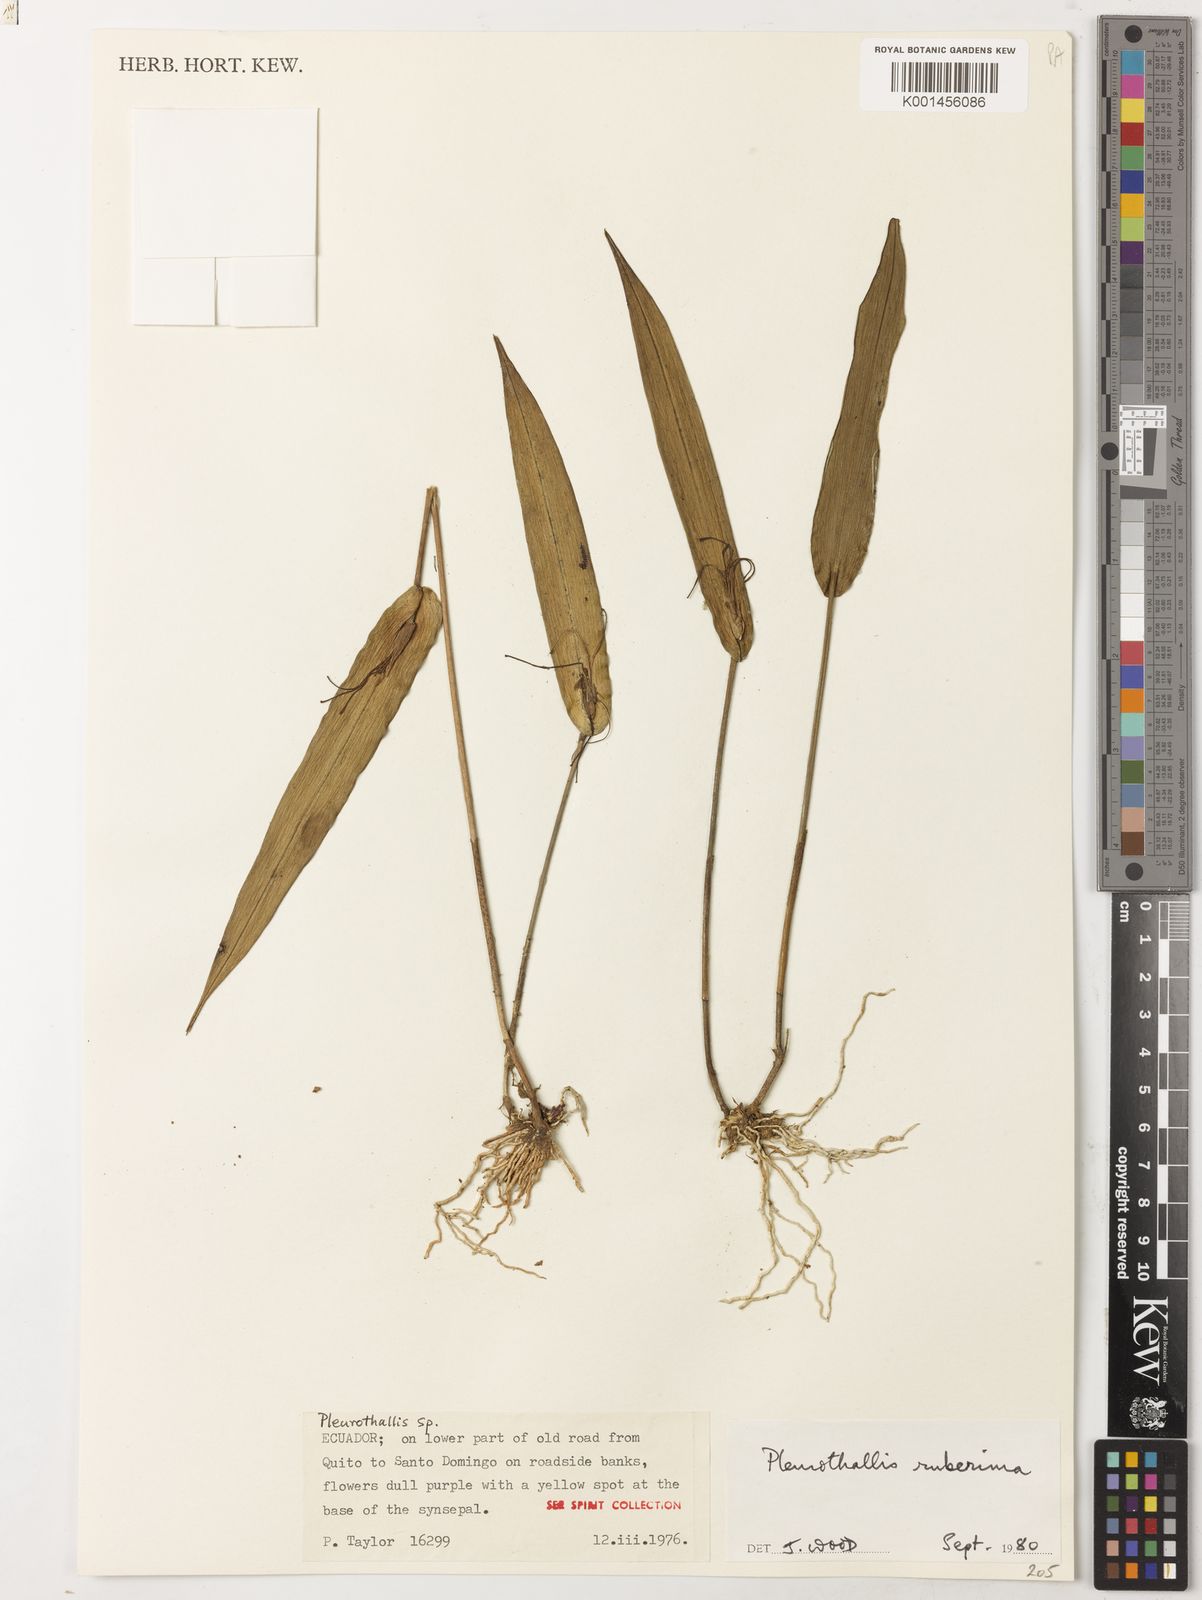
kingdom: Plantae
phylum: Tracheophyta
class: Liliopsida
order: Asparagales
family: Orchidaceae
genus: Pleurothallis
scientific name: Pleurothallis ruberrima
